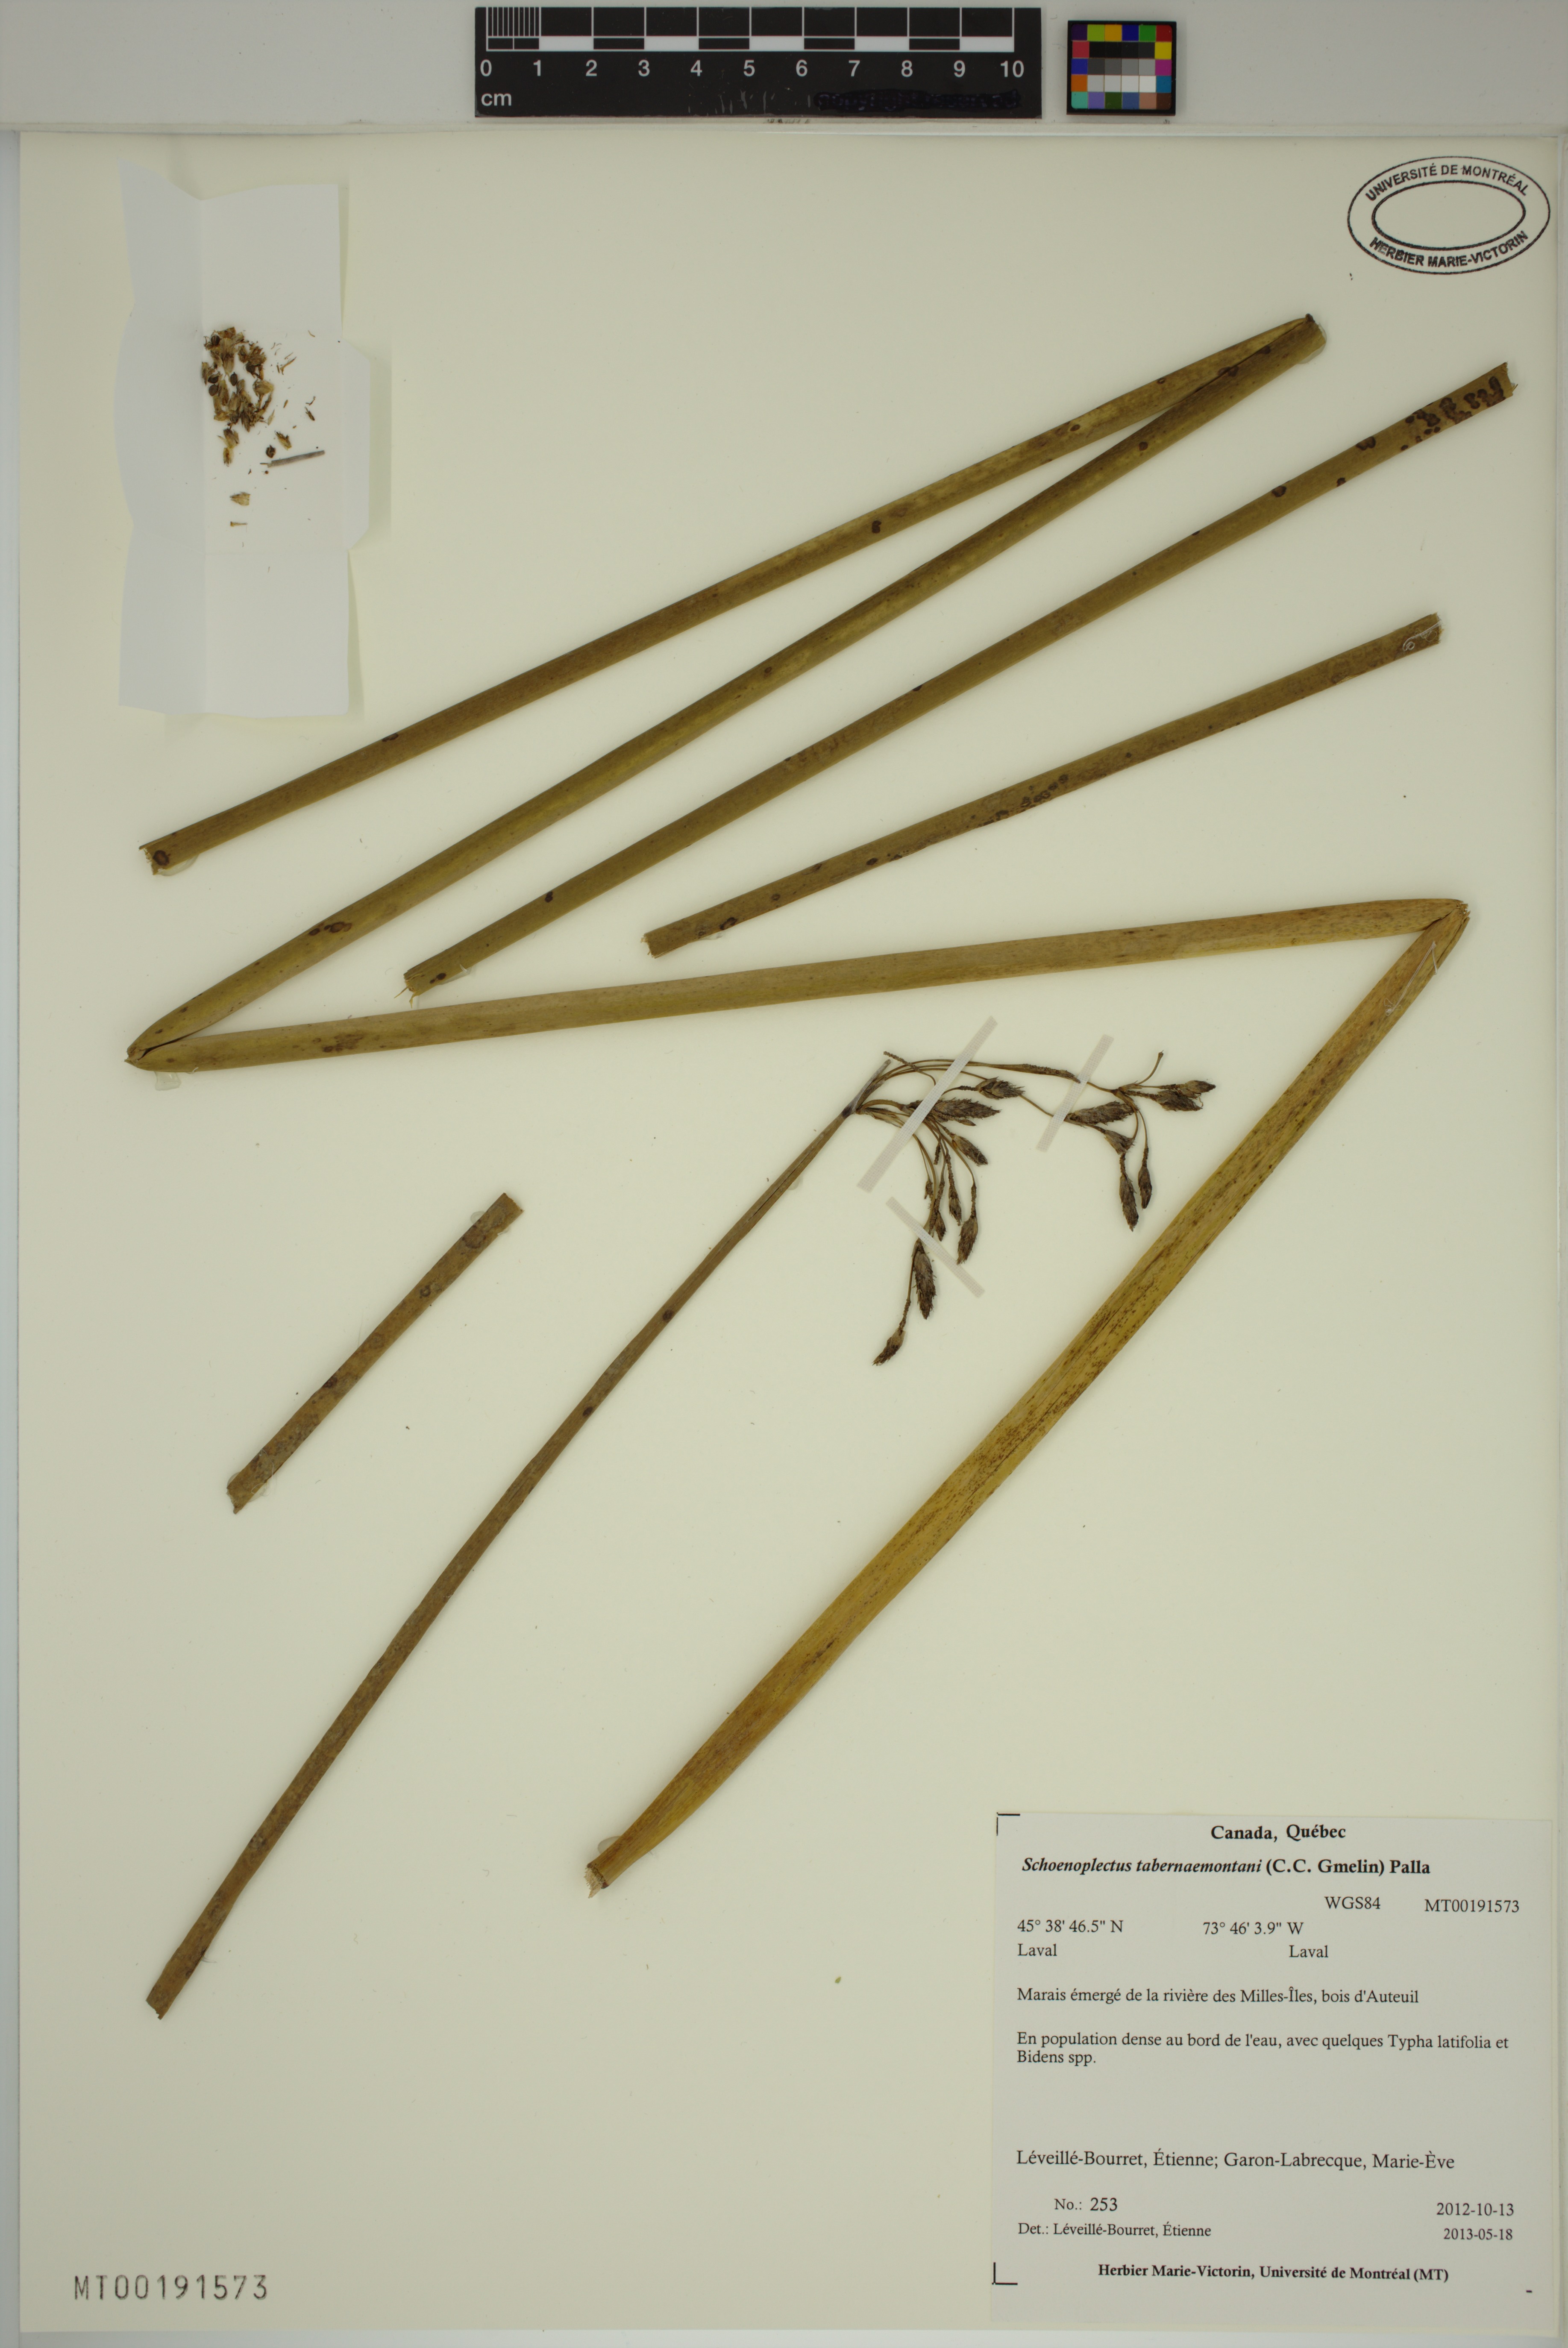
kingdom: Plantae
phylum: Tracheophyta
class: Liliopsida
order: Poales
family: Cyperaceae
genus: Schoenoplectus
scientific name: Schoenoplectus acutus
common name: Hardstem bulrush
